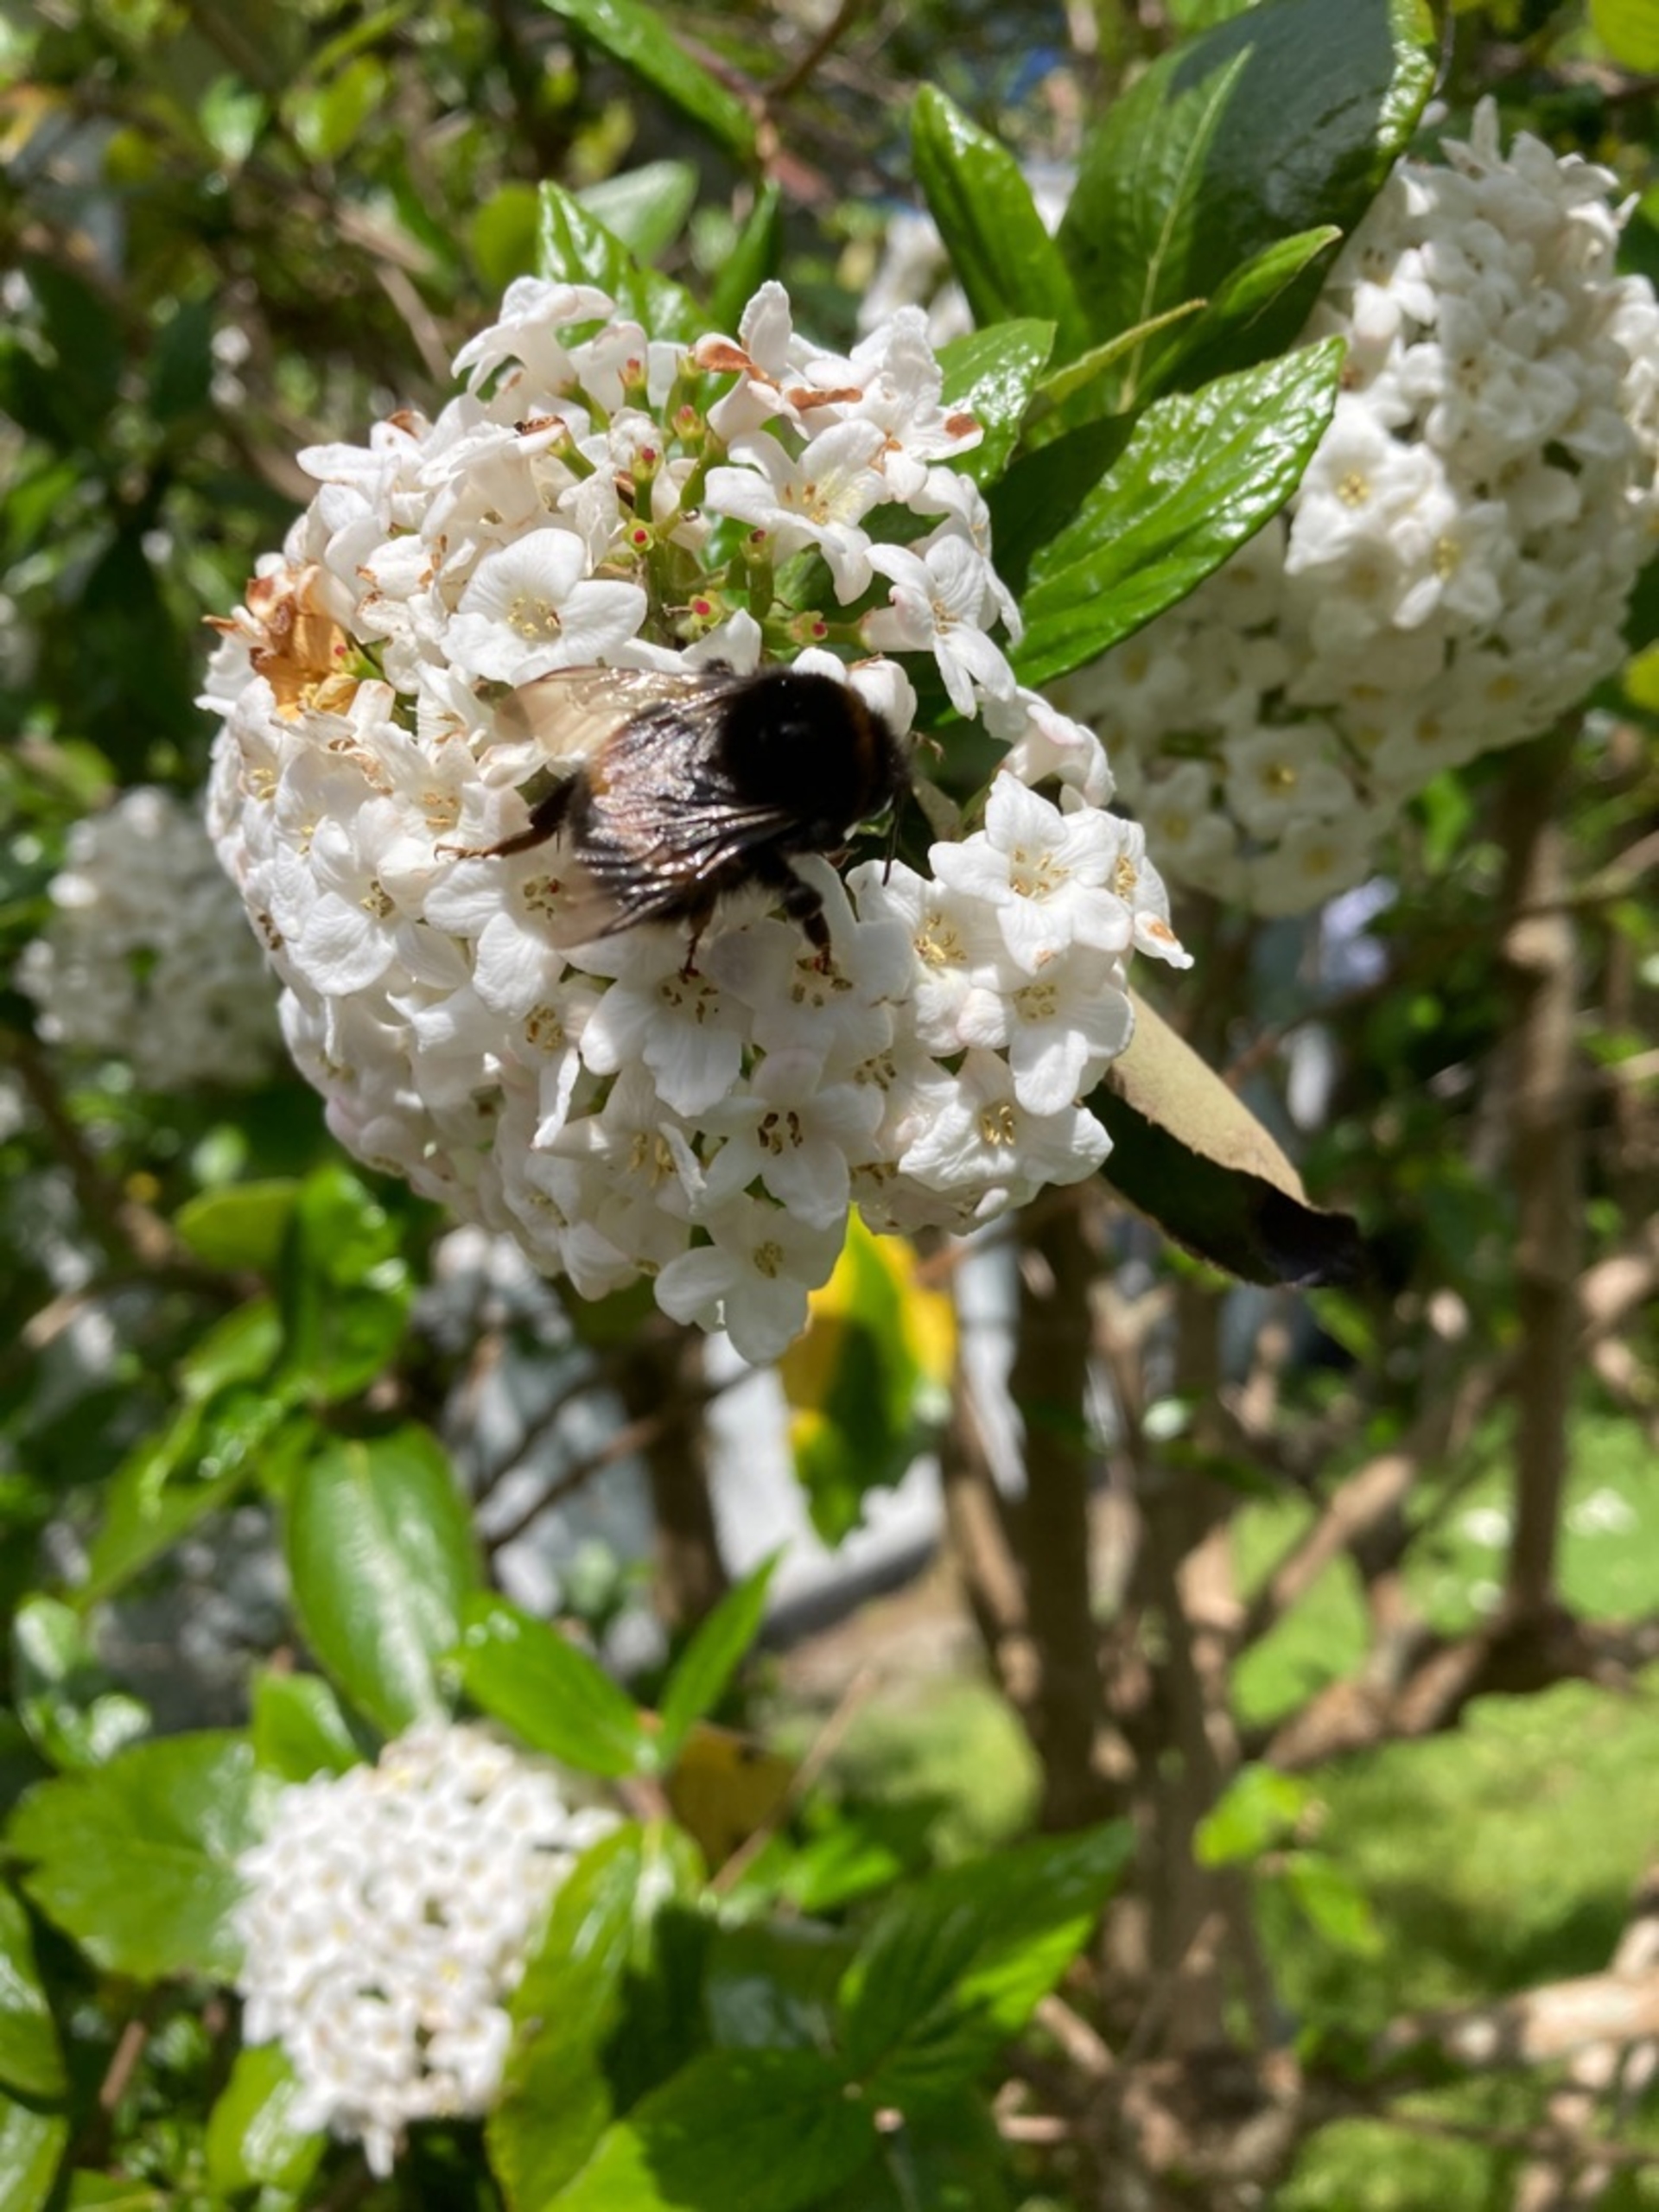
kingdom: Animalia
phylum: Arthropoda
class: Insecta
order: Hymenoptera
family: Apidae
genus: Bombus
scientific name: Bombus
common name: Humlebier
